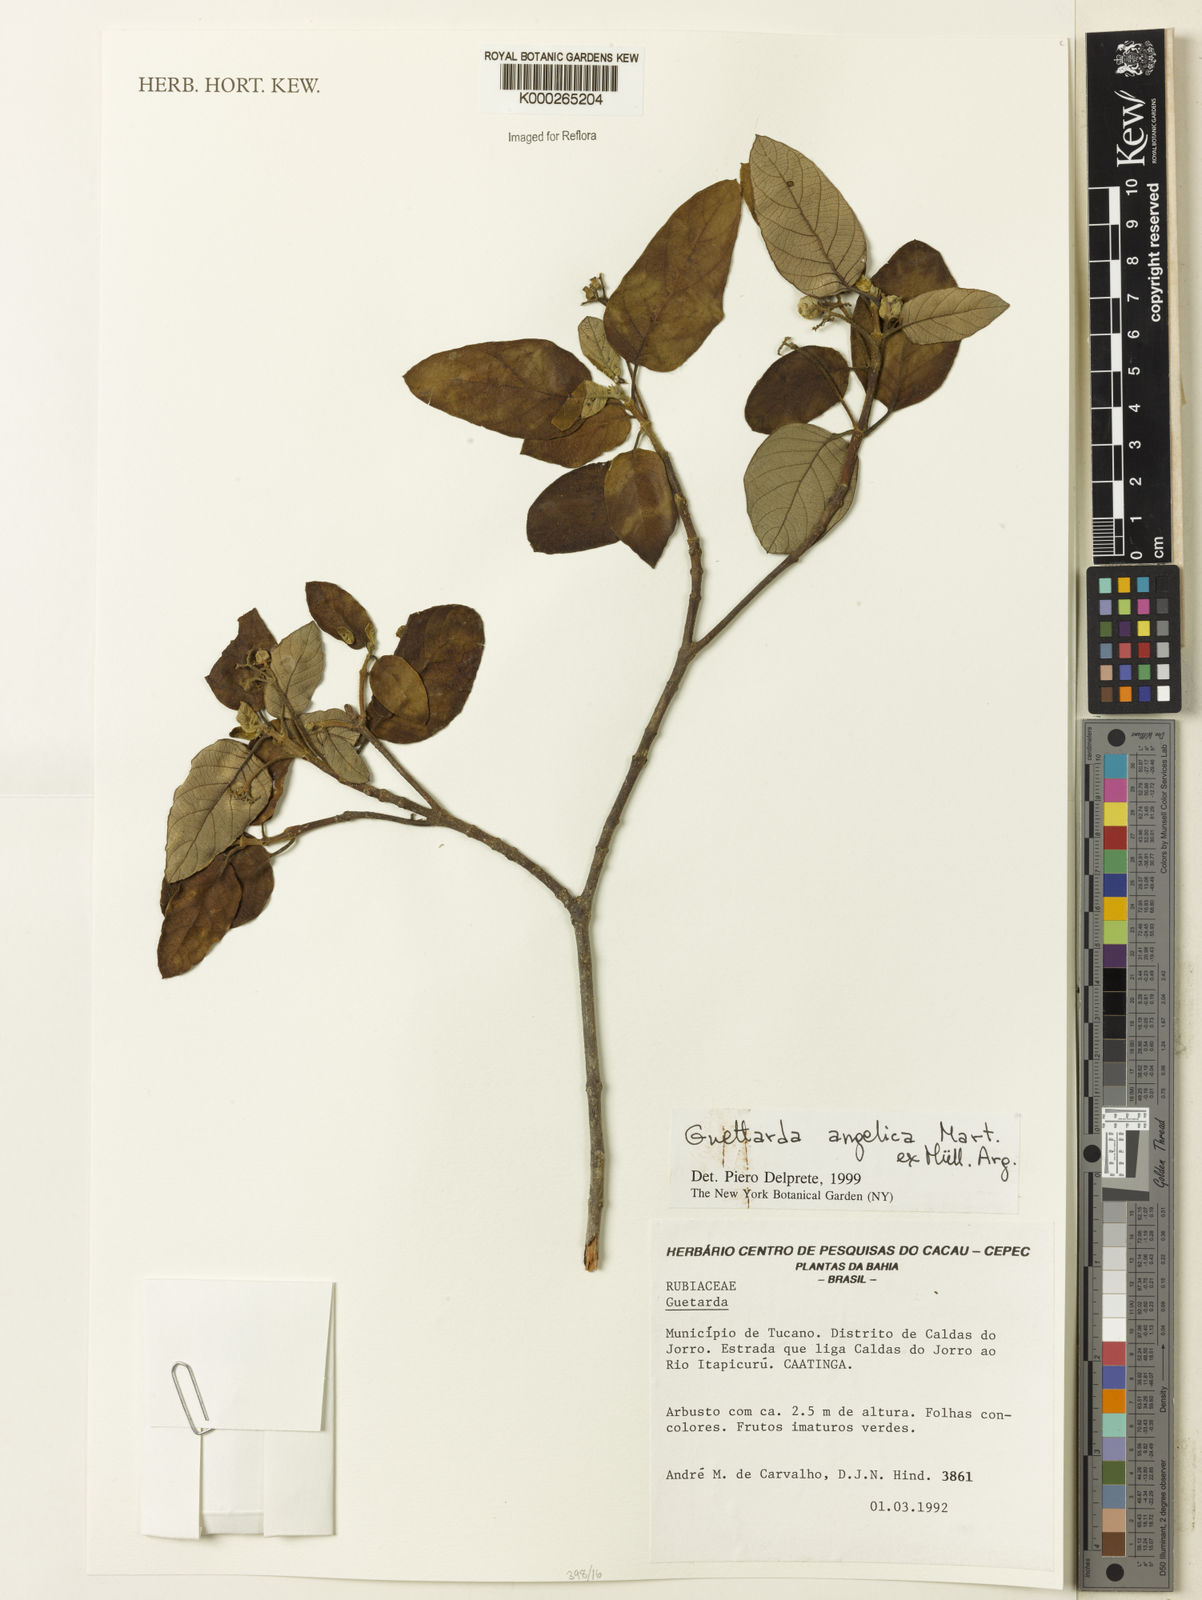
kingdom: Plantae
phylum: Tracheophyta
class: Magnoliopsida
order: Gentianales
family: Rubiaceae
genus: Guettarda
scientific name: Guettarda
